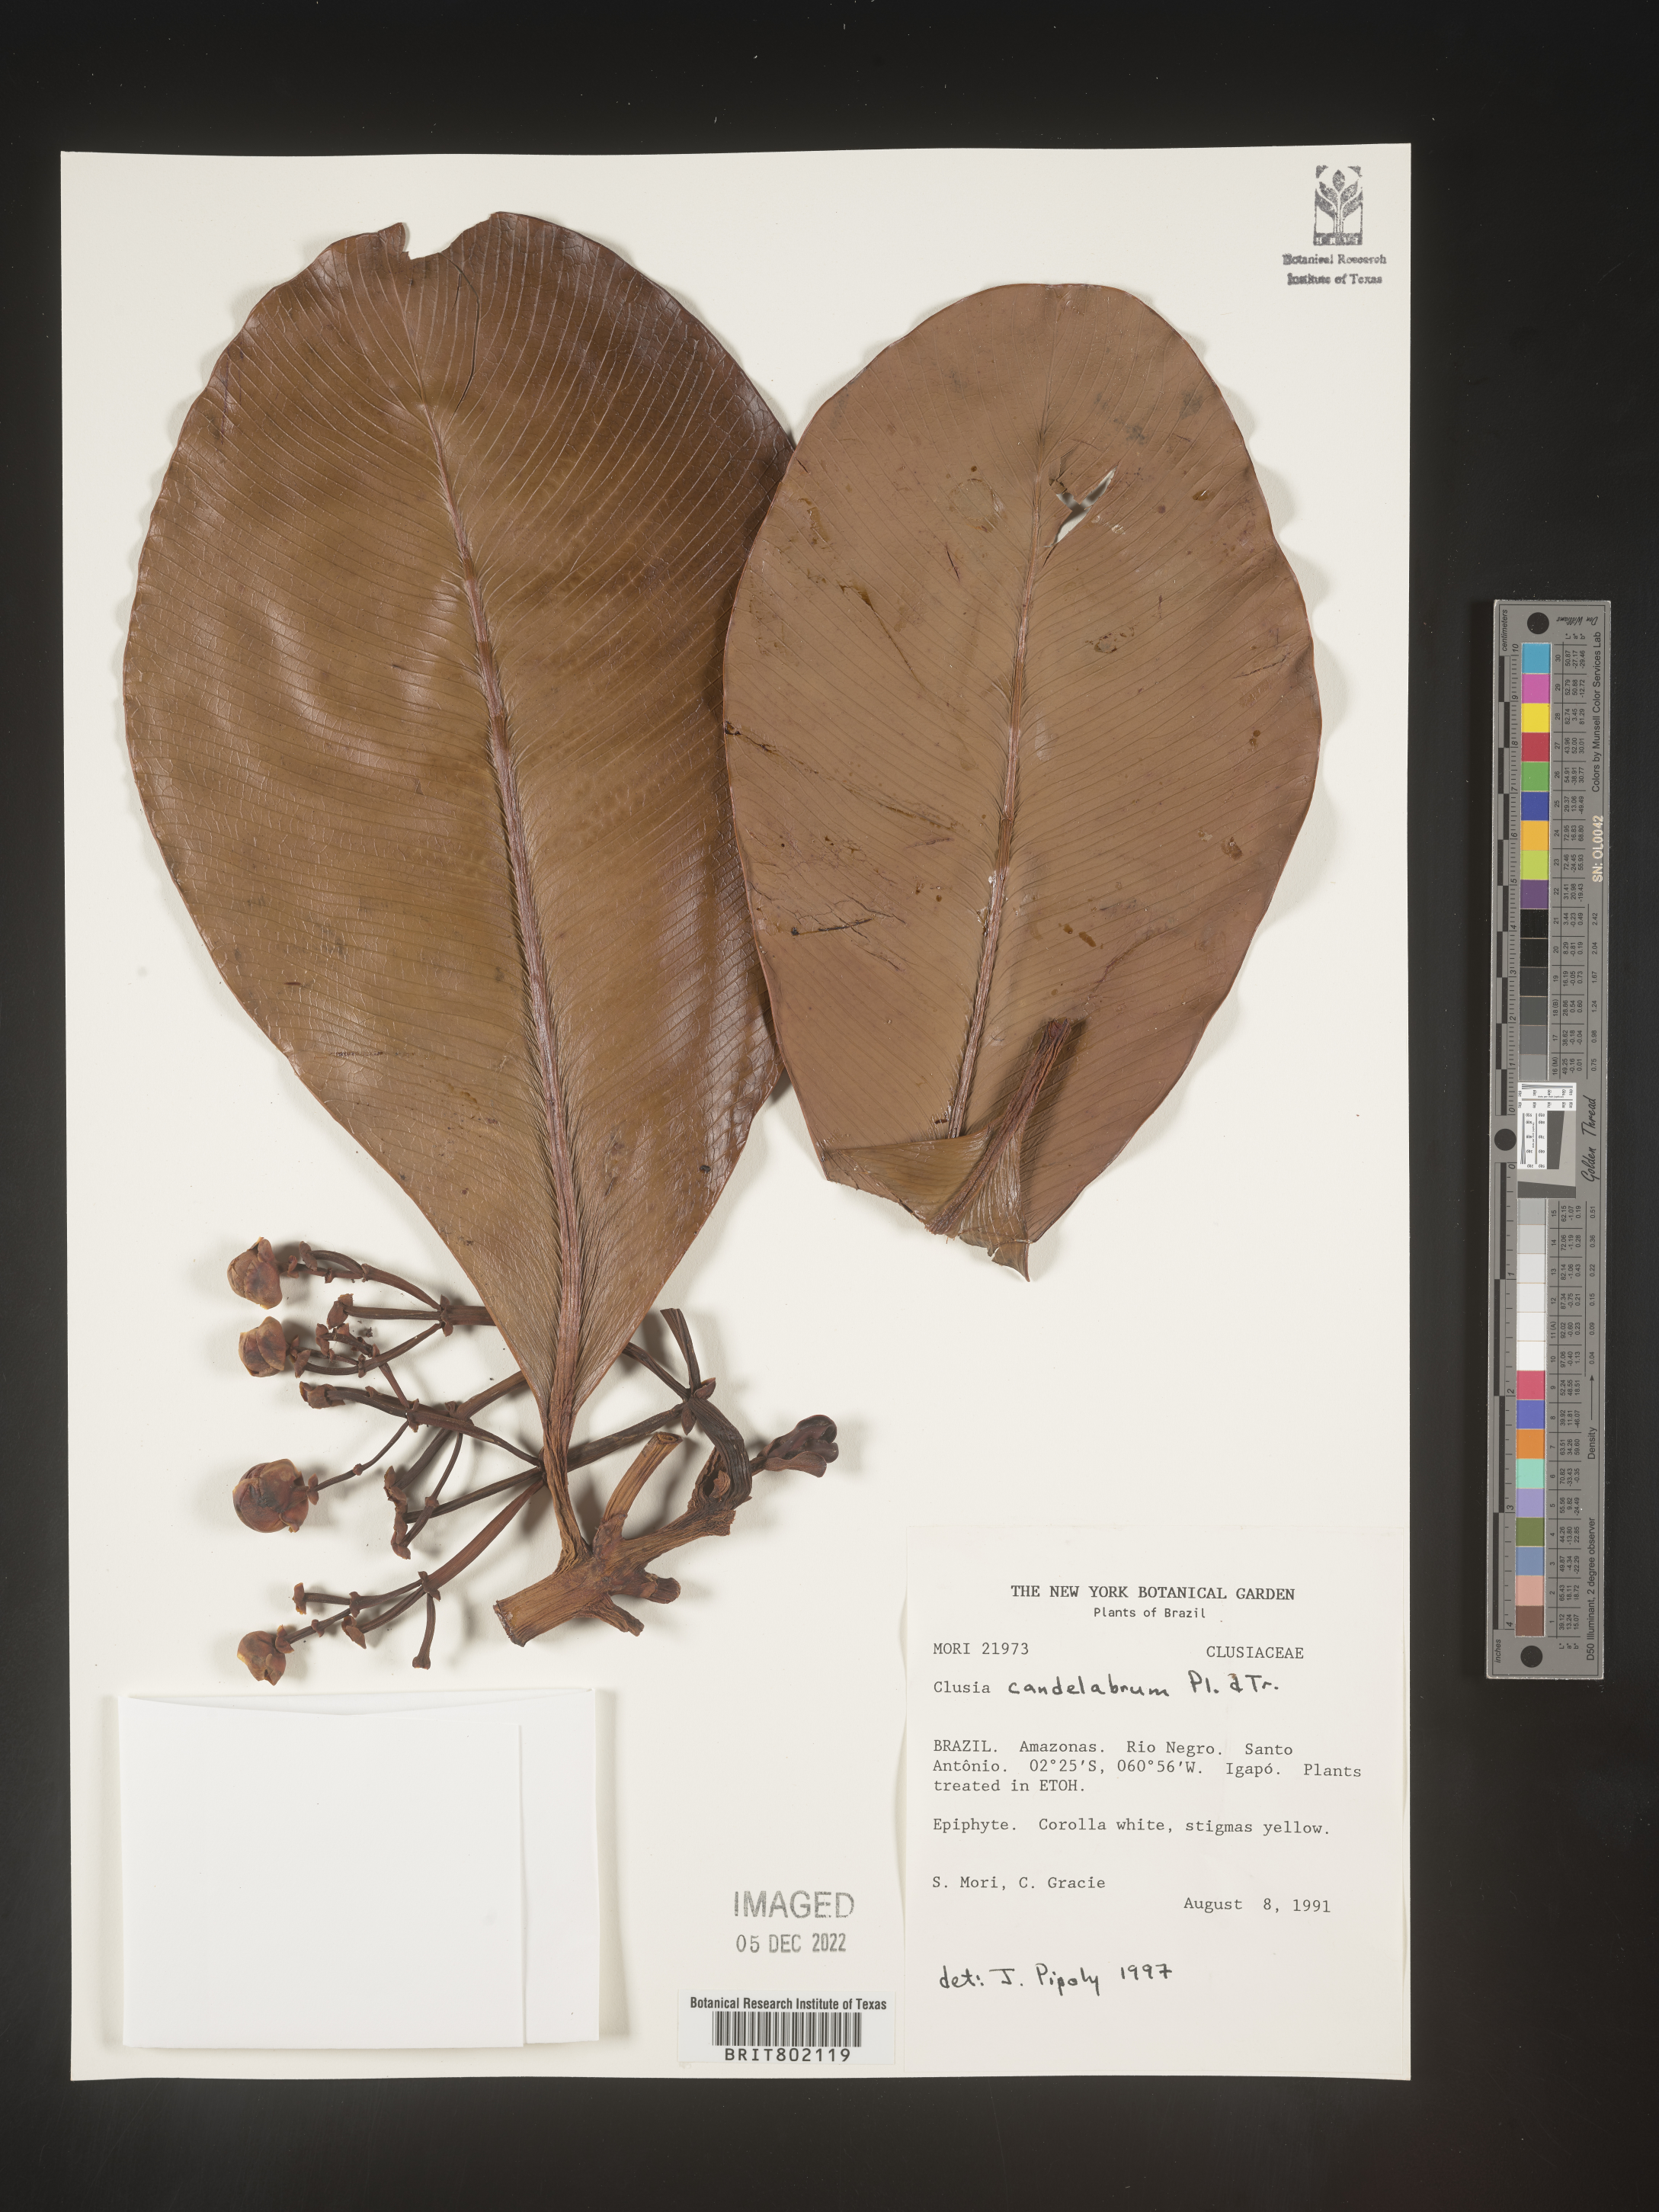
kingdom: Plantae
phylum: Tracheophyta
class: Magnoliopsida
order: Malpighiales
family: Clusiaceae
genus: Clusia
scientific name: Clusia candelabrum
